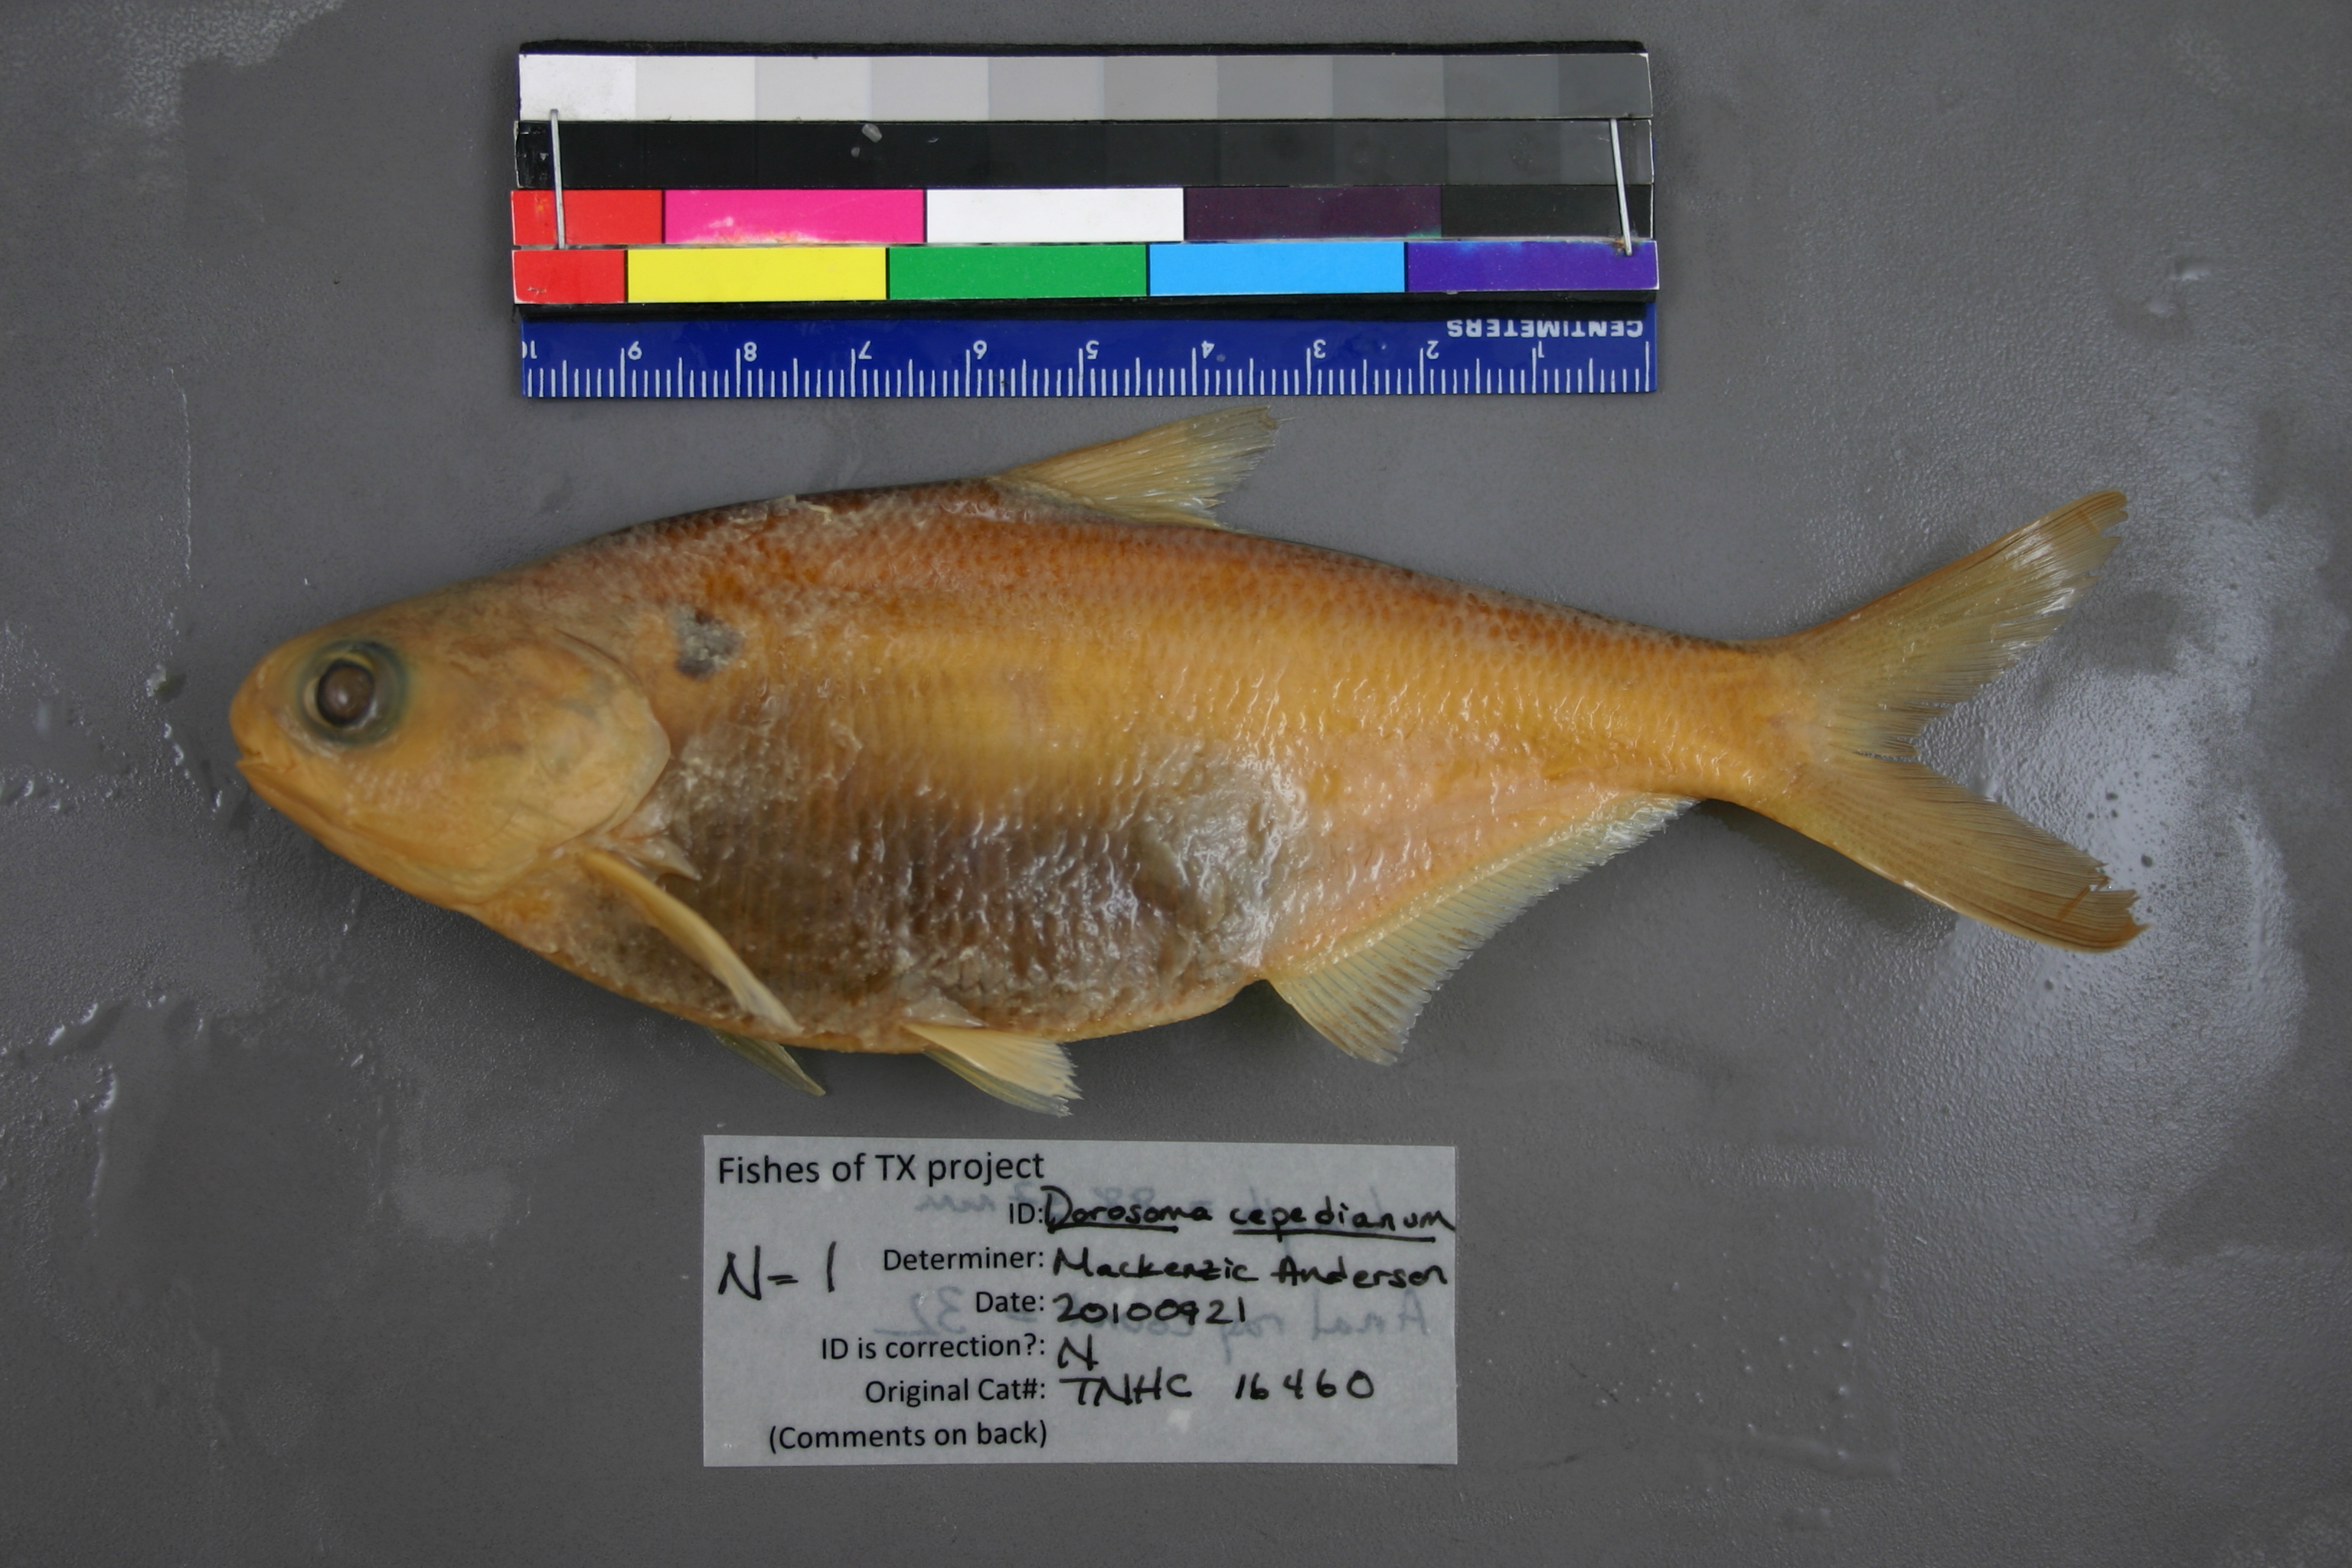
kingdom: Animalia
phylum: Chordata
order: Clupeiformes
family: Clupeidae
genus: Dorosoma
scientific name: Dorosoma cepedianum
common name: Gizzard shad
